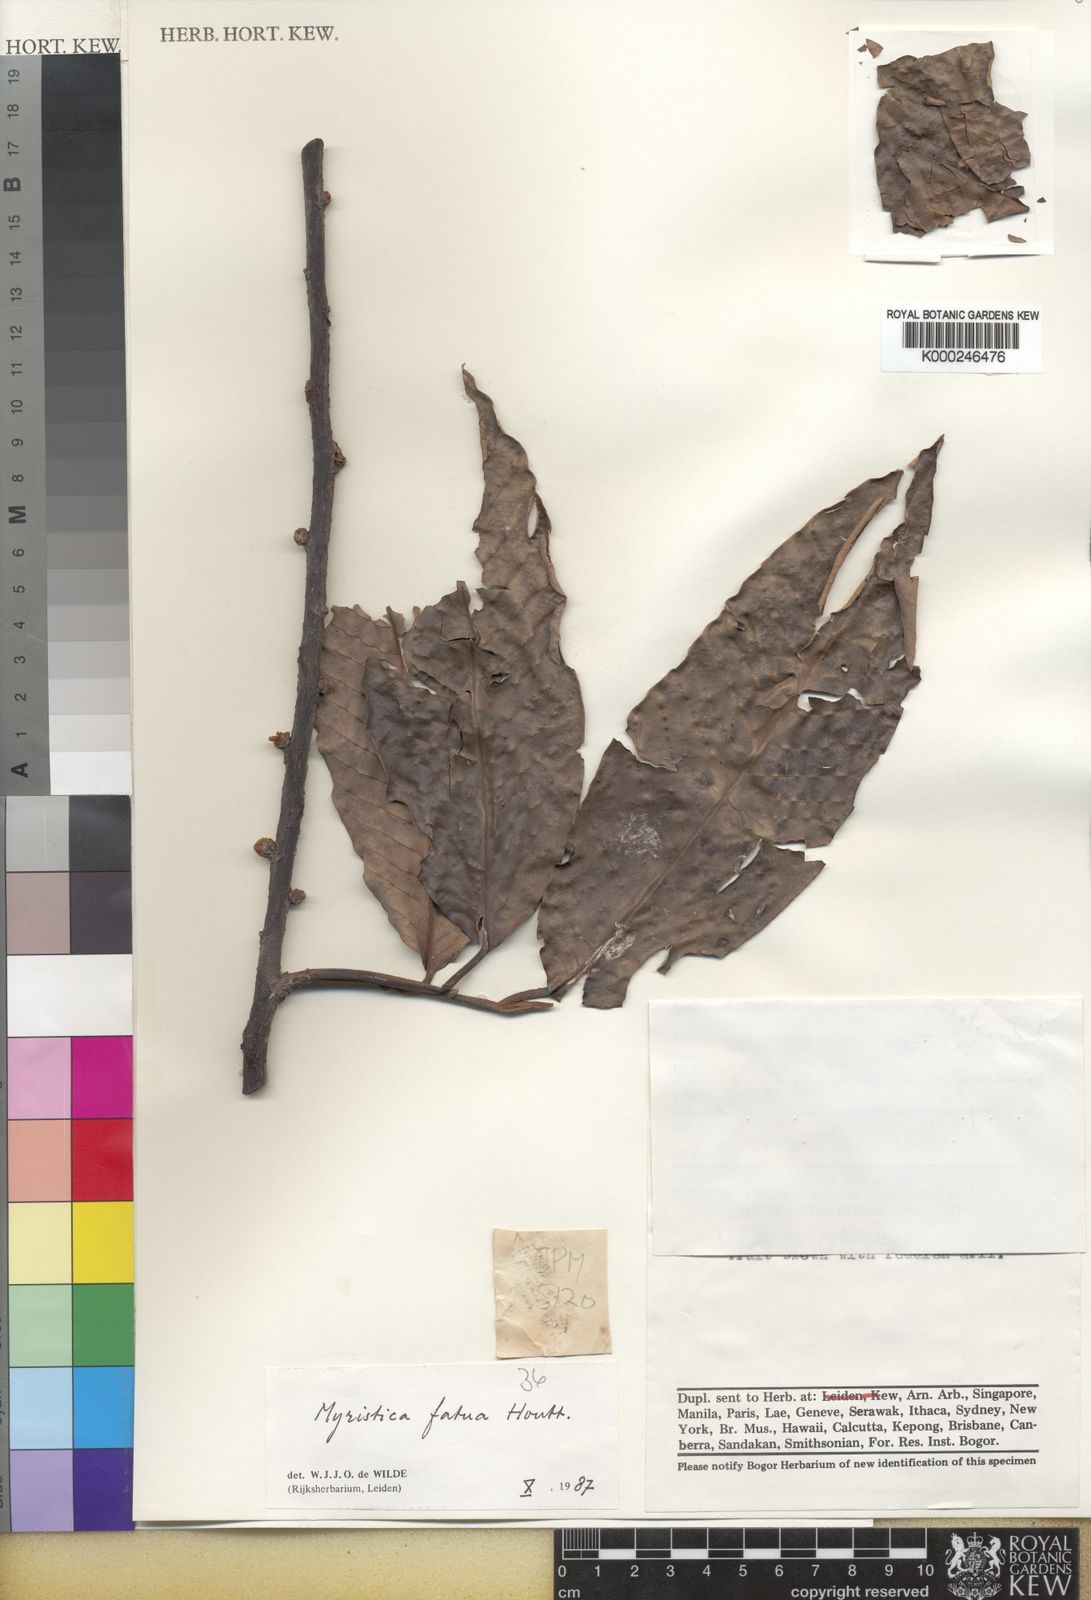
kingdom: Plantae
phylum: Tracheophyta
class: Magnoliopsida
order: Magnoliales
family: Myristicaceae
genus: Myristica
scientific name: Myristica fatua
